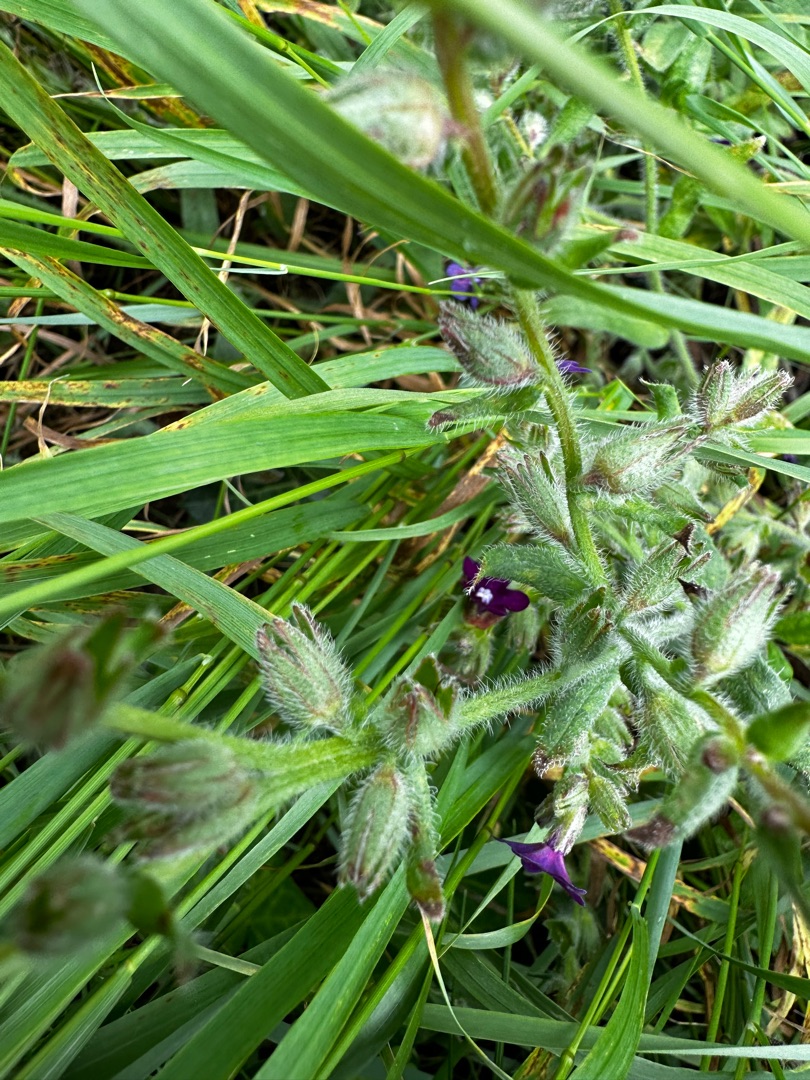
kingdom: Plantae
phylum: Tracheophyta
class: Magnoliopsida
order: Boraginales
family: Boraginaceae
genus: Anchusa
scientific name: Anchusa officinalis
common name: Læge-oksetunge
